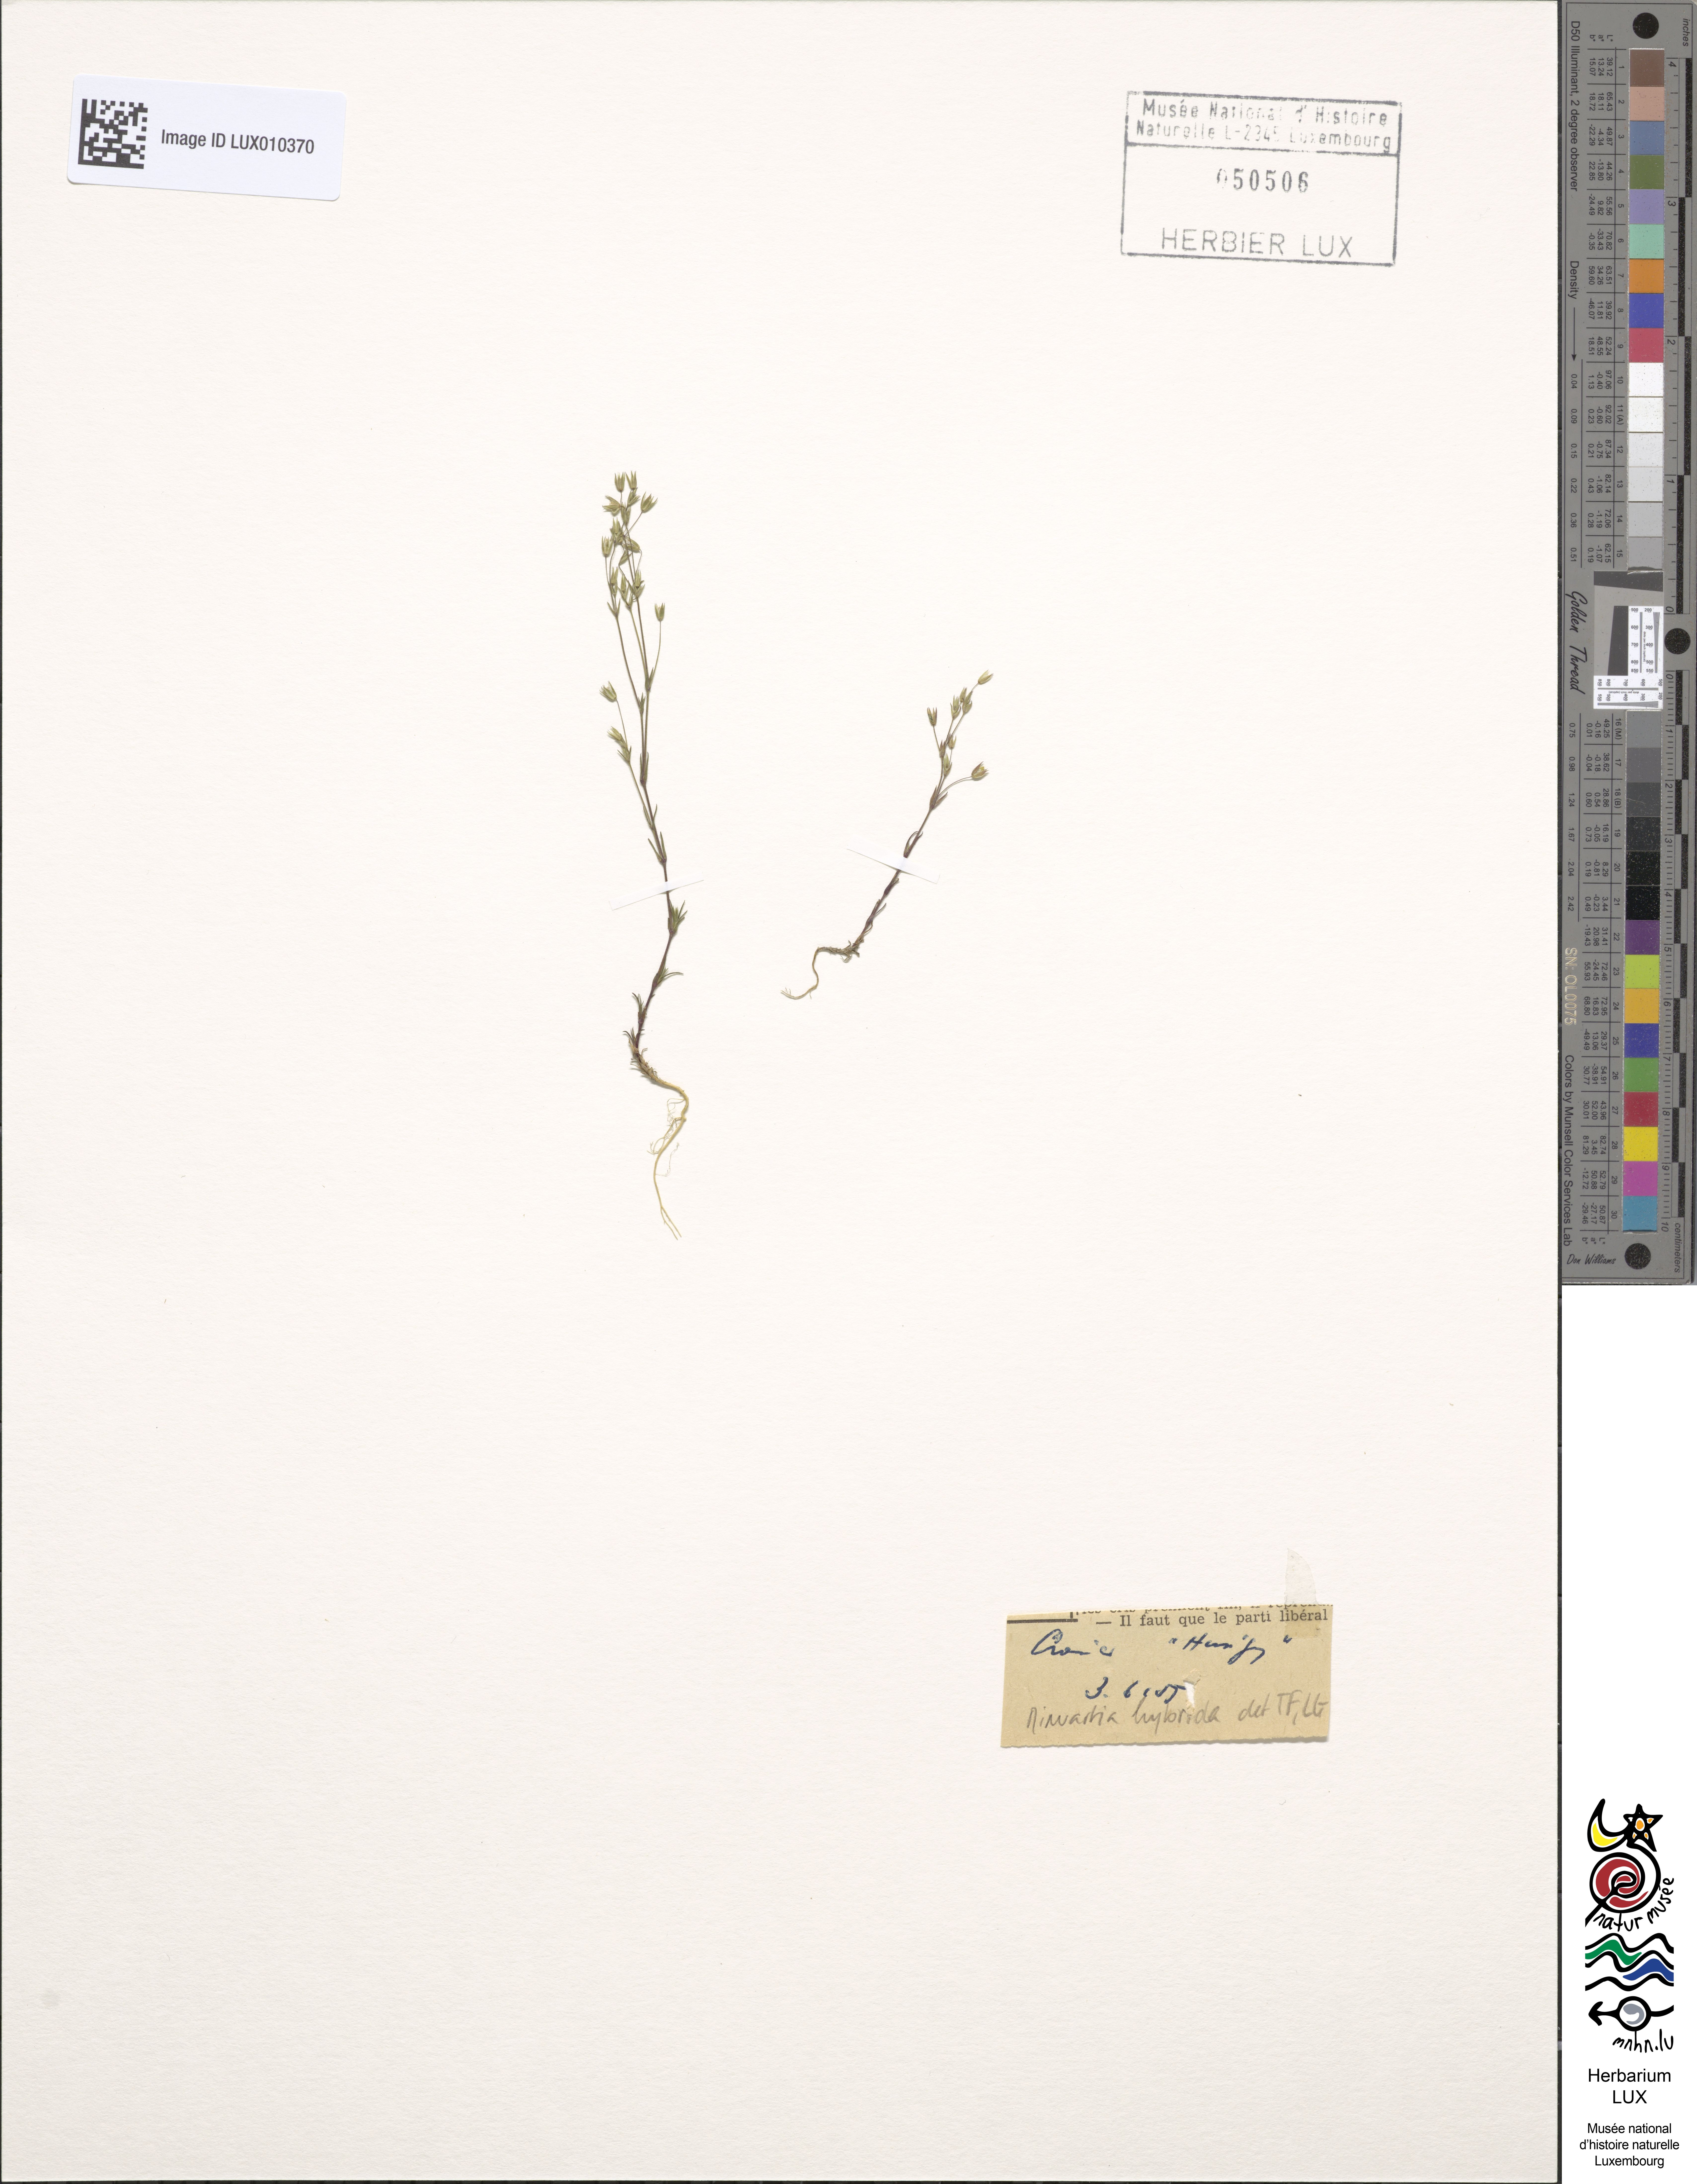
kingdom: Plantae
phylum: Tracheophyta
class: Magnoliopsida
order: Caryophyllales
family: Caryophyllaceae
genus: Sabulina
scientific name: Sabulina tenuifolia
